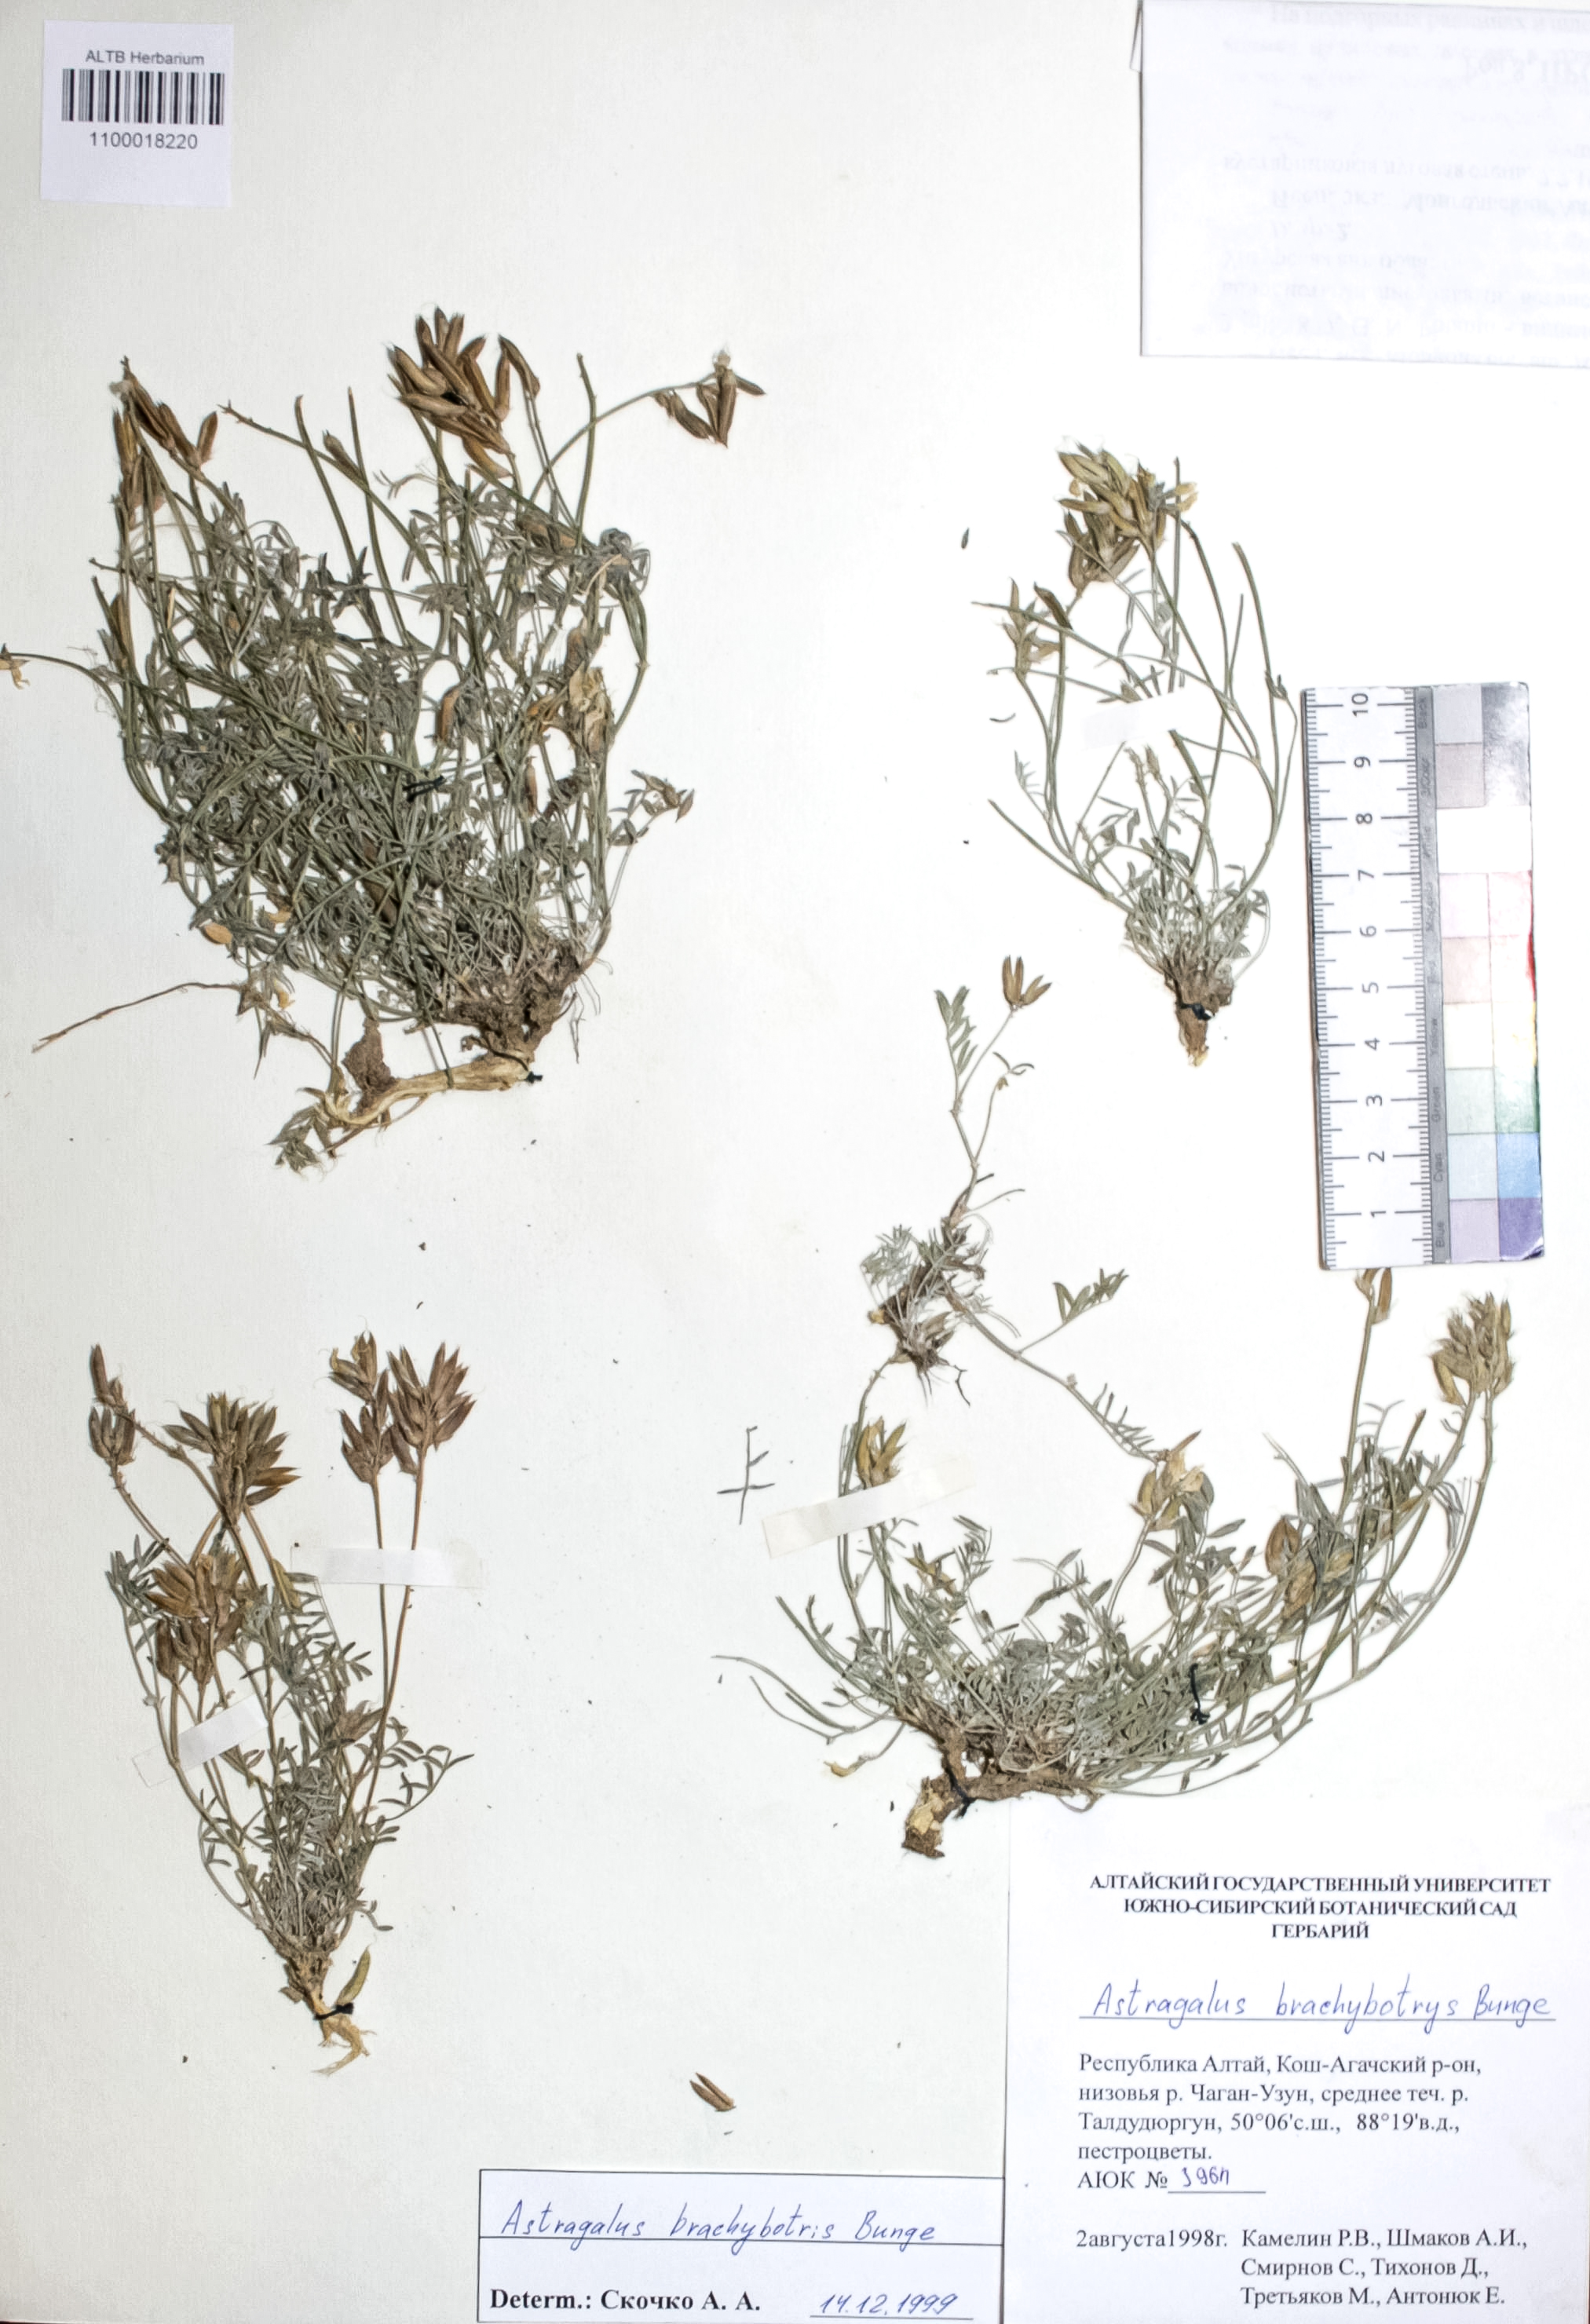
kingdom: Plantae
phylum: Tracheophyta
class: Magnoliopsida
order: Fabales
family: Fabaceae
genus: Astragalus
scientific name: Astragalus brachybotrys
